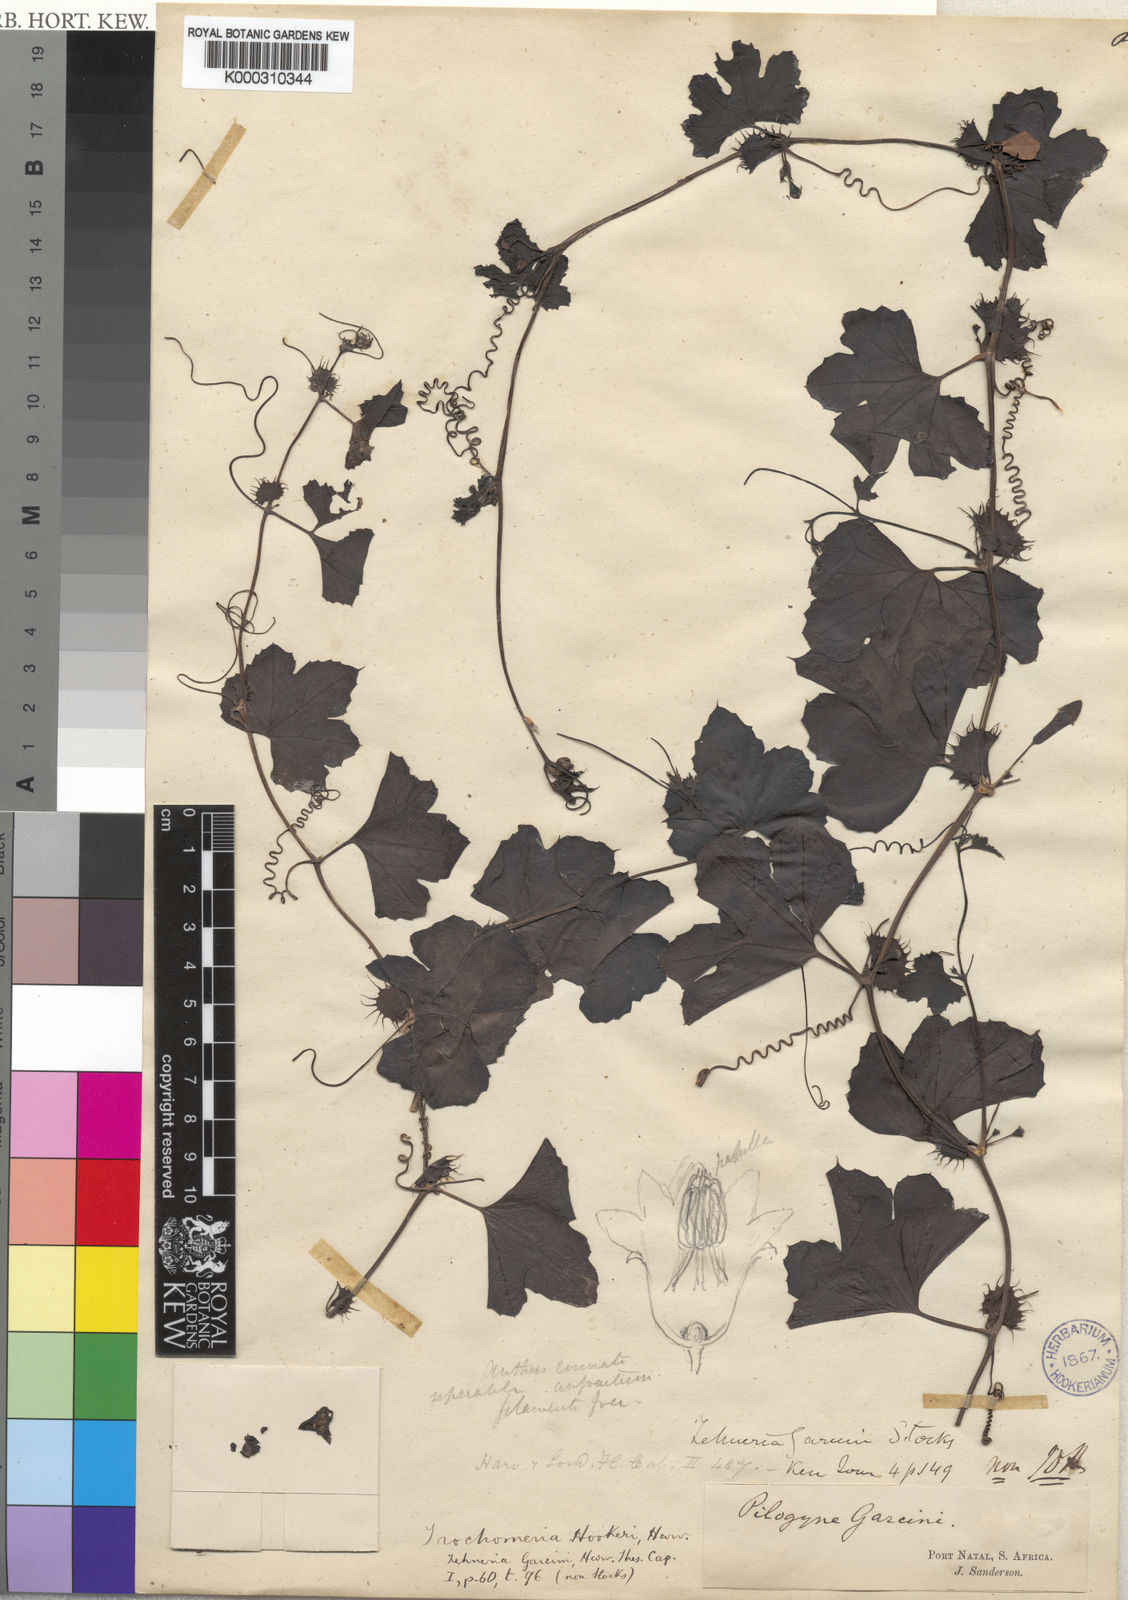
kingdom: Plantae
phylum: Tracheophyta
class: Magnoliopsida
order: Cucurbitales
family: Cucurbitaceae
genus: Trochomeria
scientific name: Trochomeria hookeri
